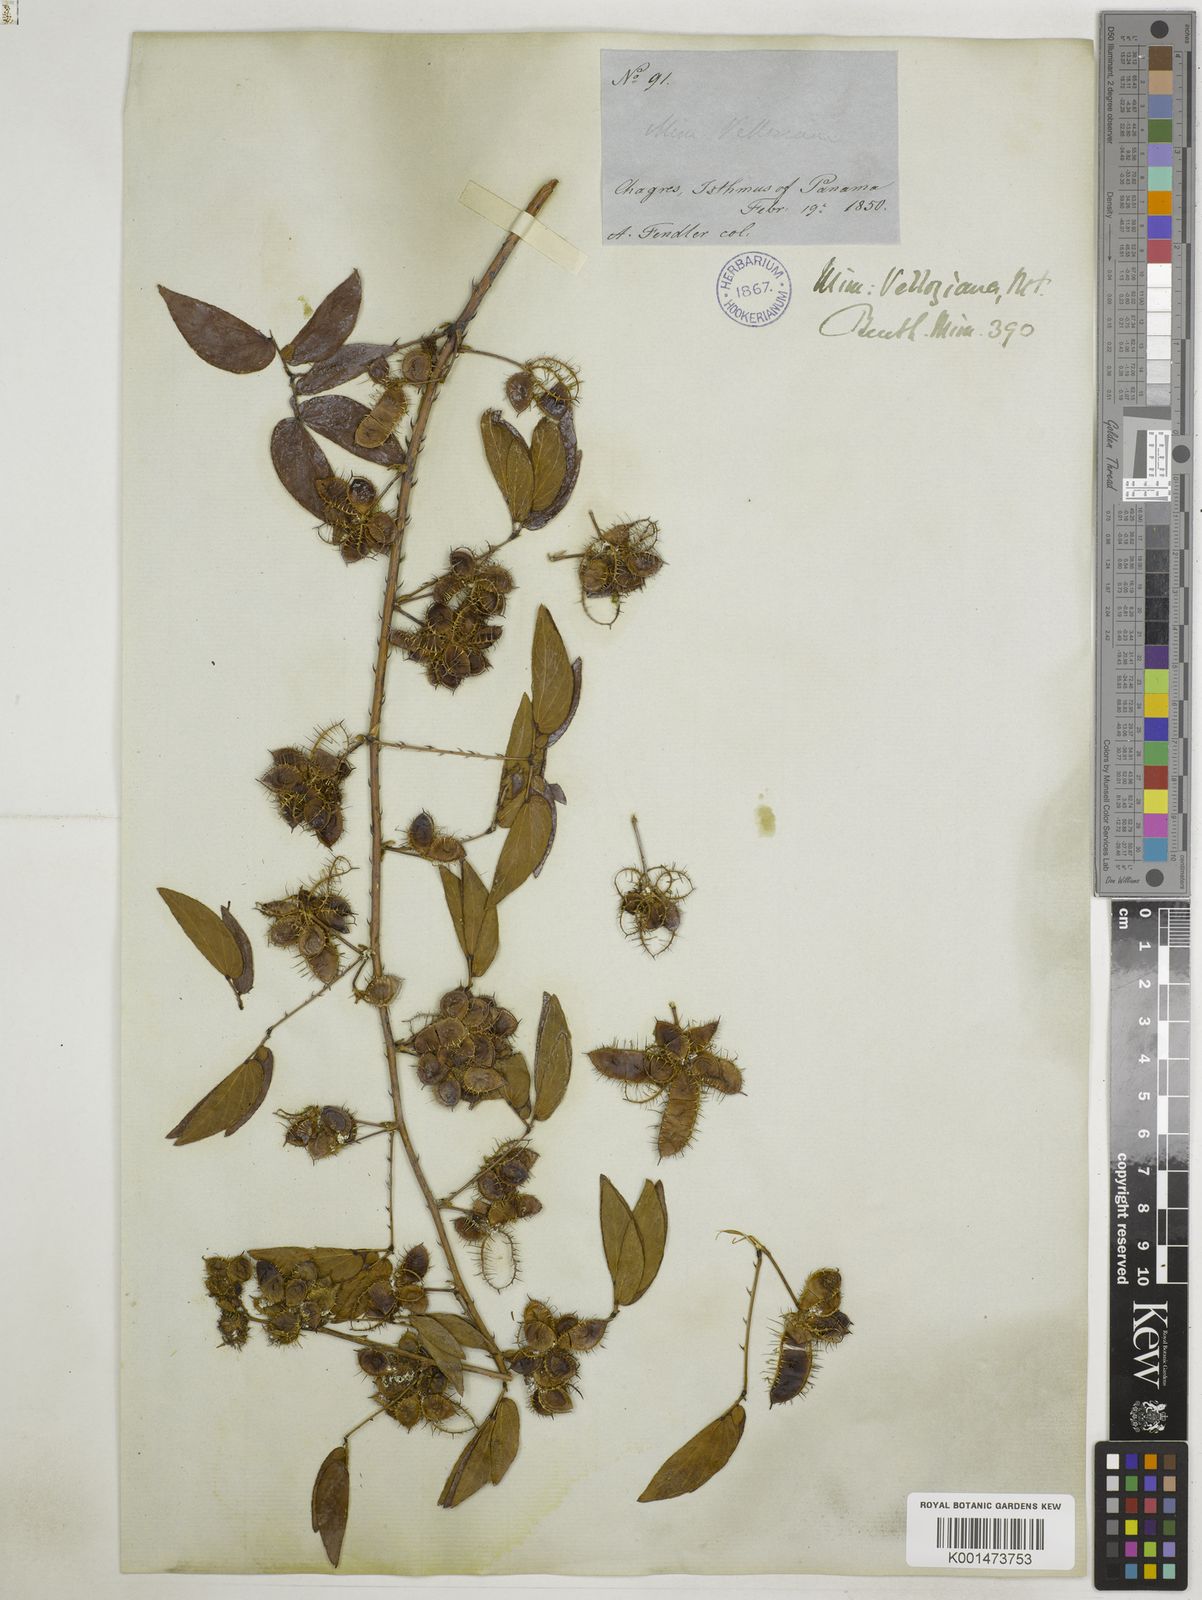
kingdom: Plantae
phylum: Tracheophyta
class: Magnoliopsida
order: Fabales
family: Fabaceae
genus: Mimosa
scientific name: Mimosa velloziana
